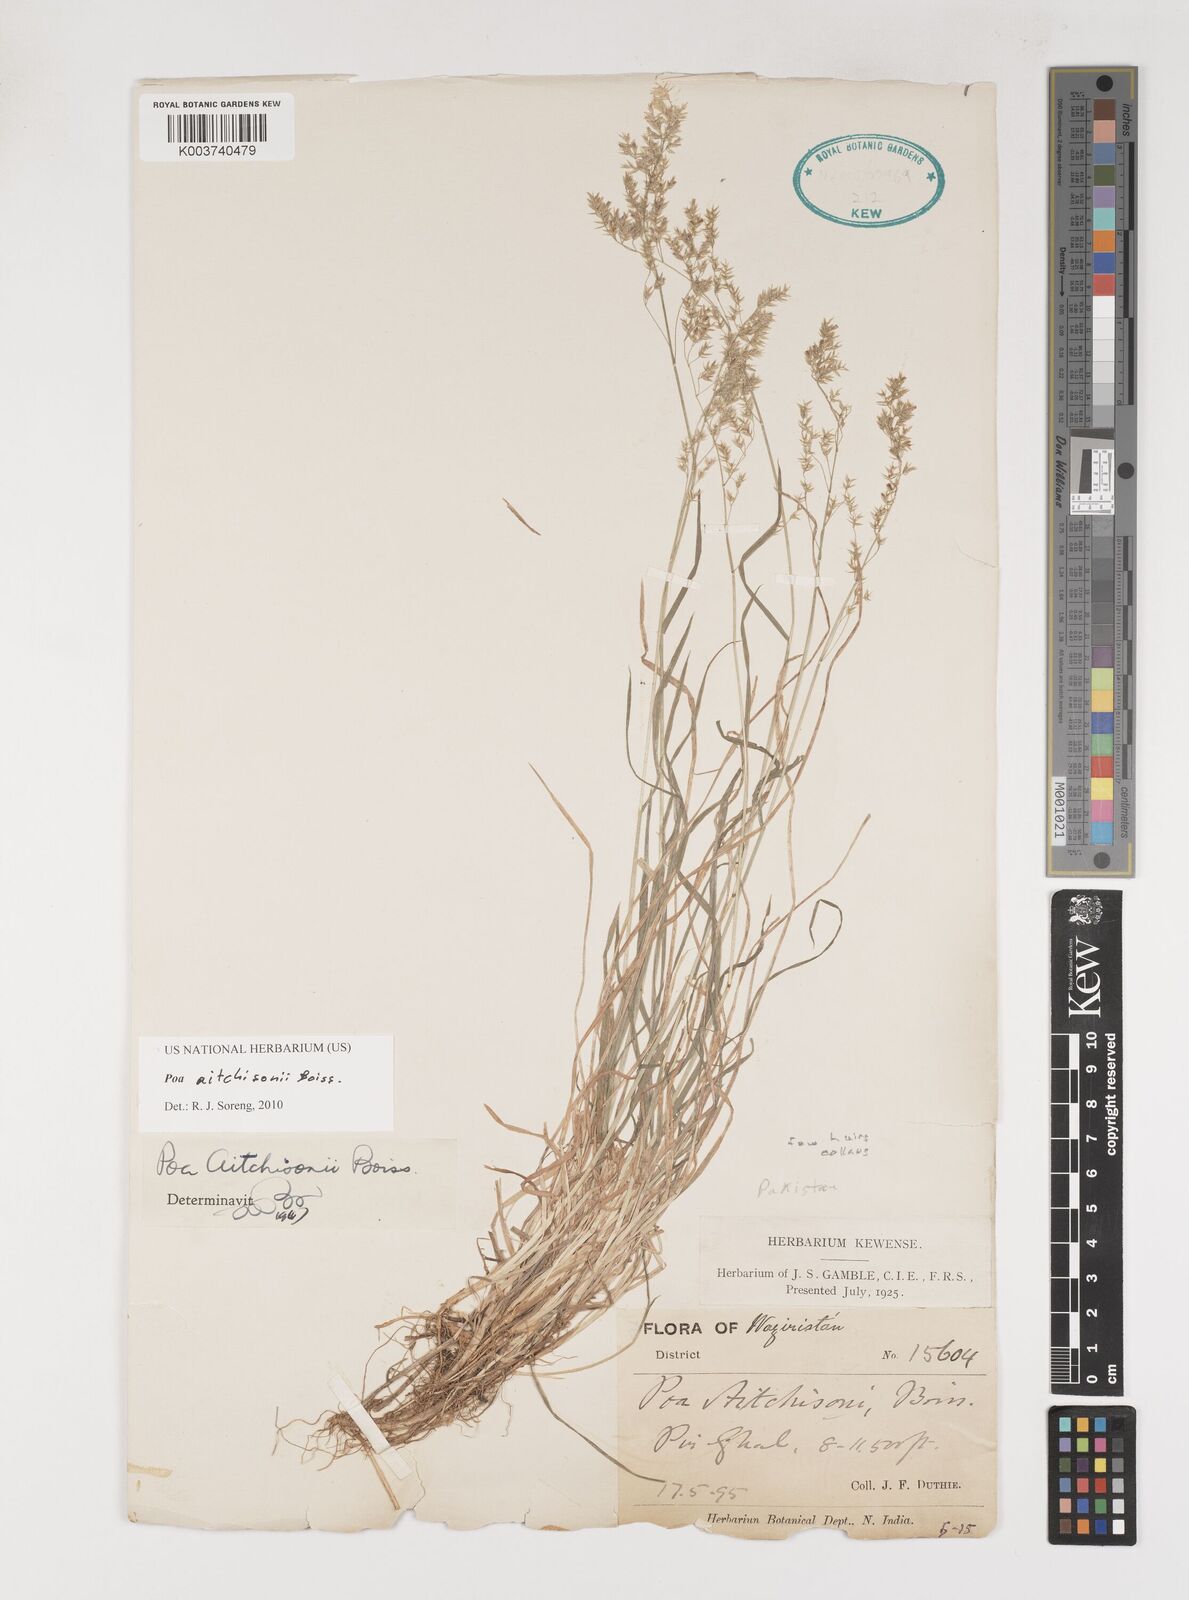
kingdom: Plantae
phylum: Tracheophyta
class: Liliopsida
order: Poales
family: Poaceae
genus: Poa
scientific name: Poa aitchisonii
